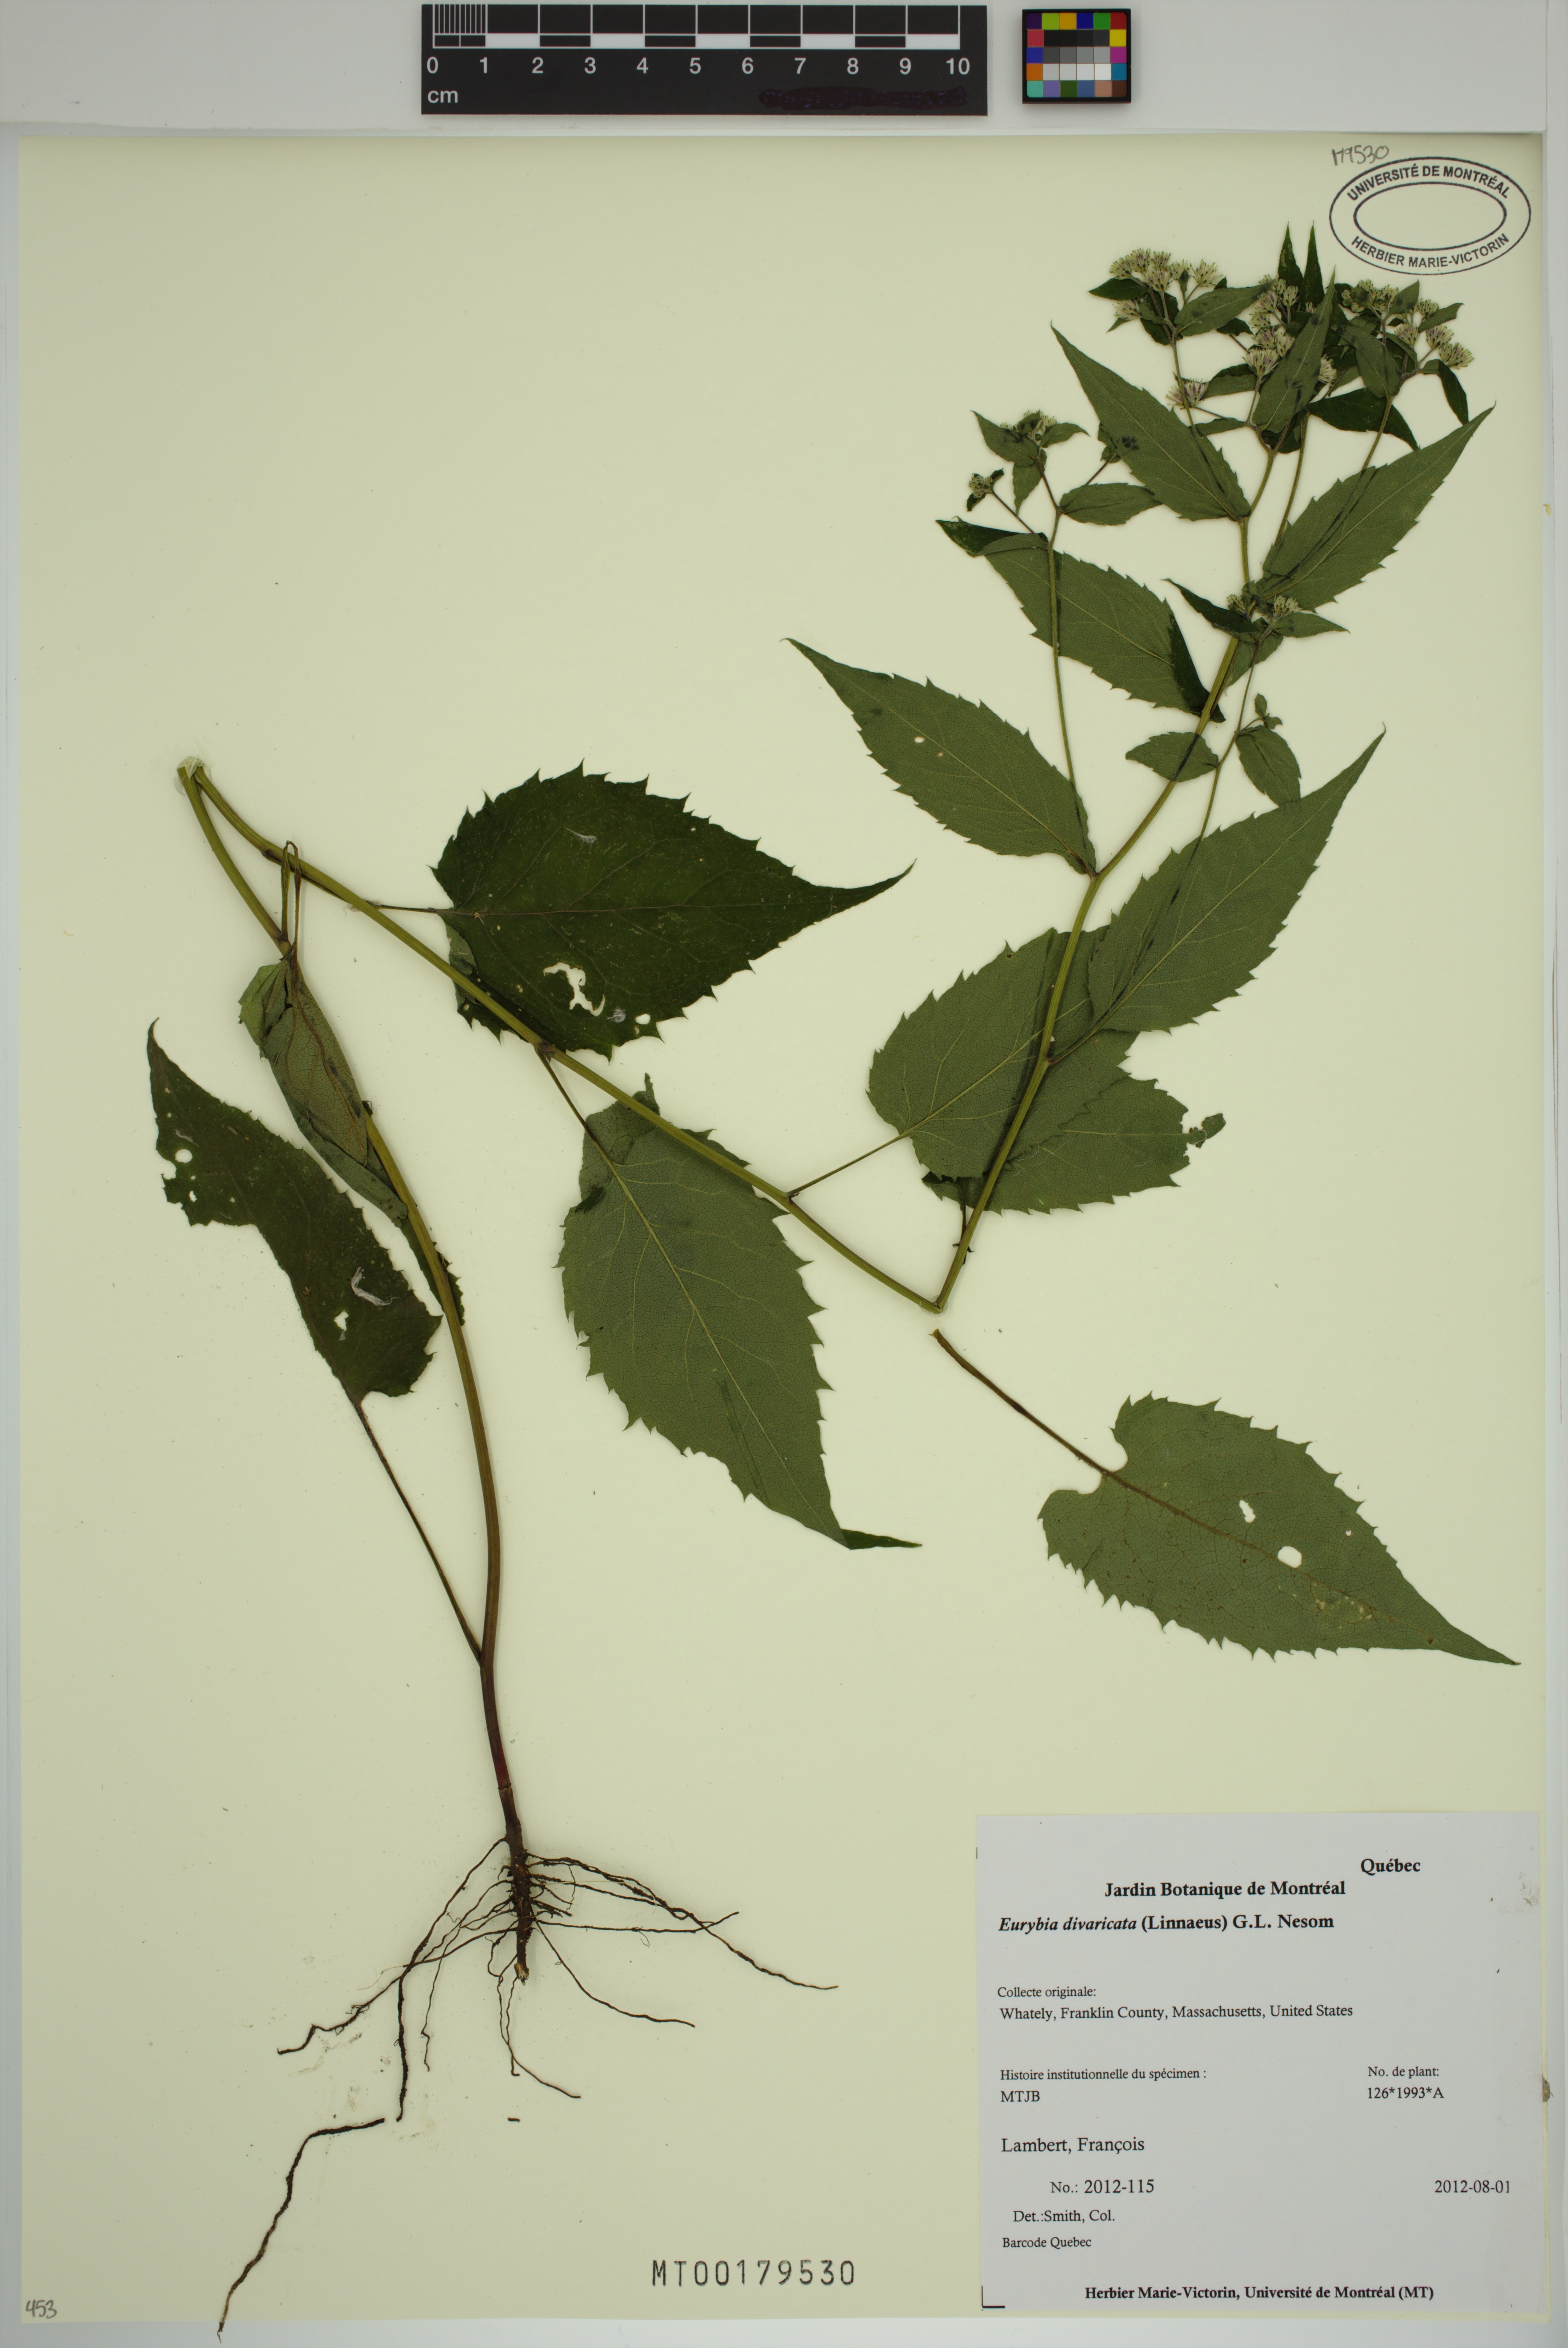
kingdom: Plantae
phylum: Tracheophyta
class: Magnoliopsida
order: Asterales
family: Asteraceae
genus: Eurybia
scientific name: Eurybia divaricata
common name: White wood aster
